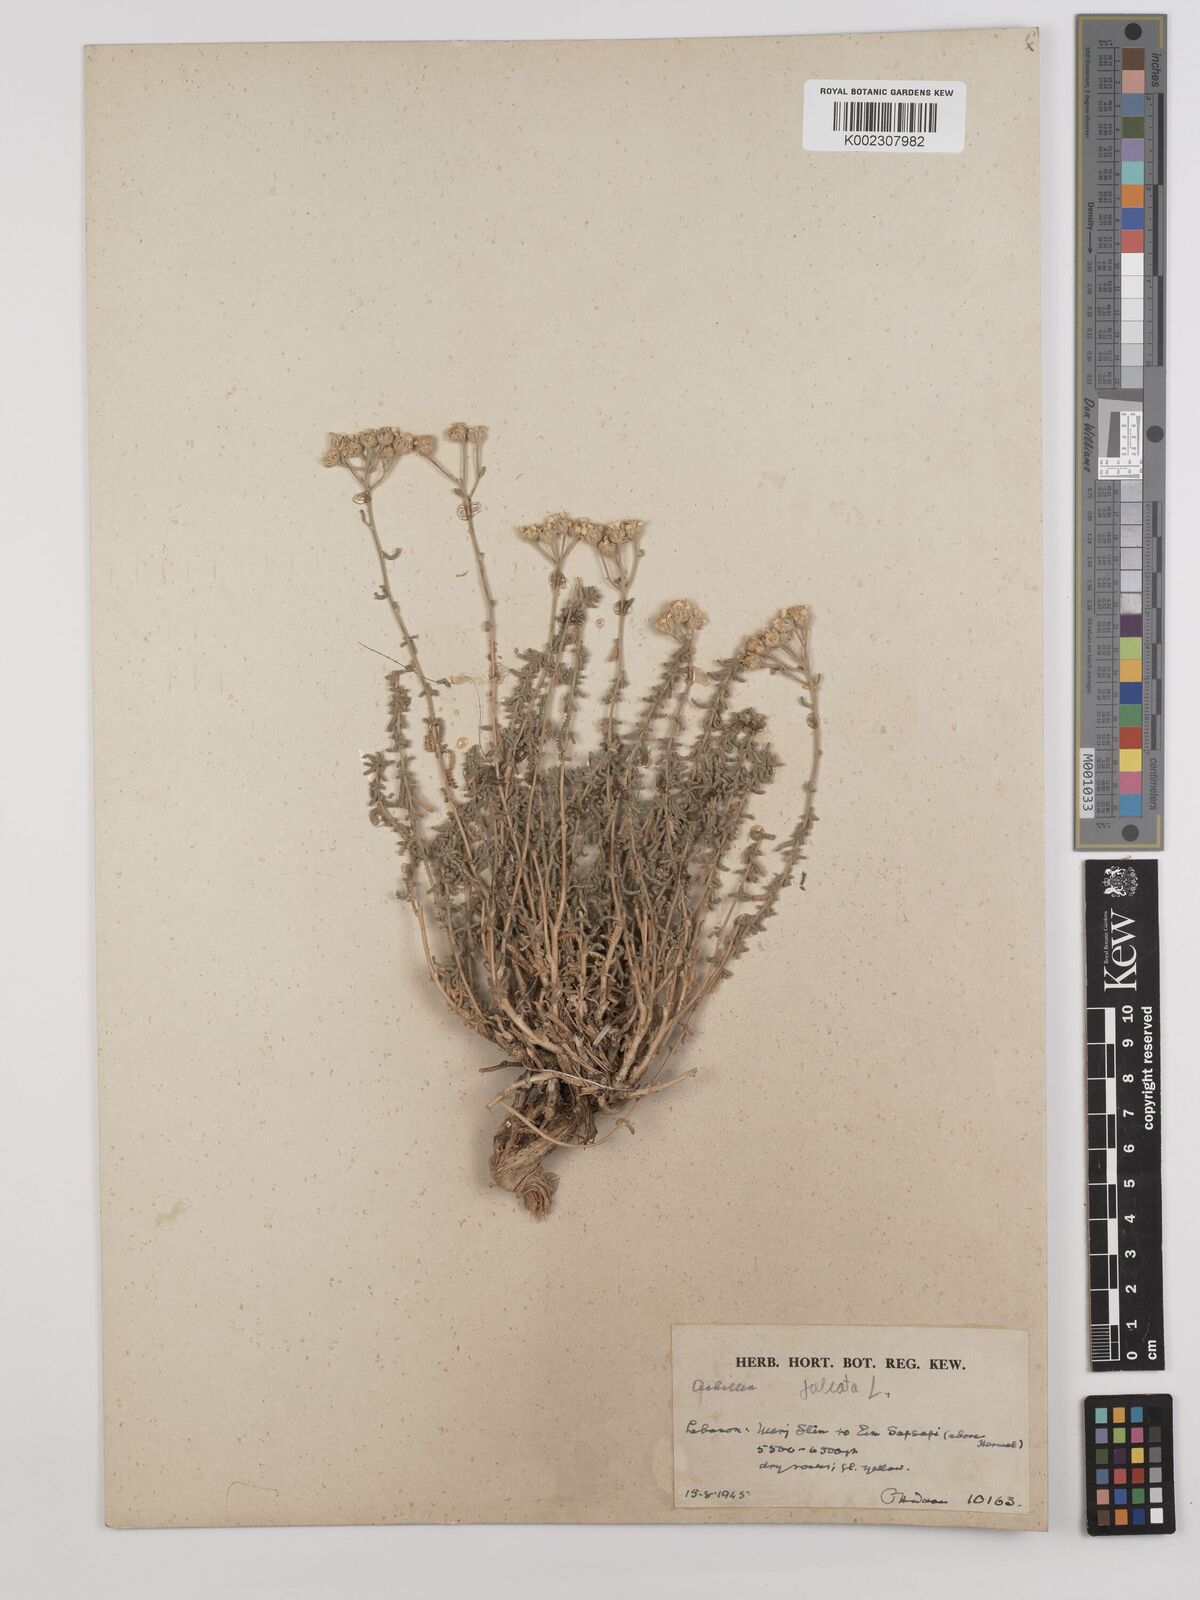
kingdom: Plantae
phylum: Tracheophyta
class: Magnoliopsida
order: Asterales
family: Asteraceae
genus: Achillea
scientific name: Achillea falcata
